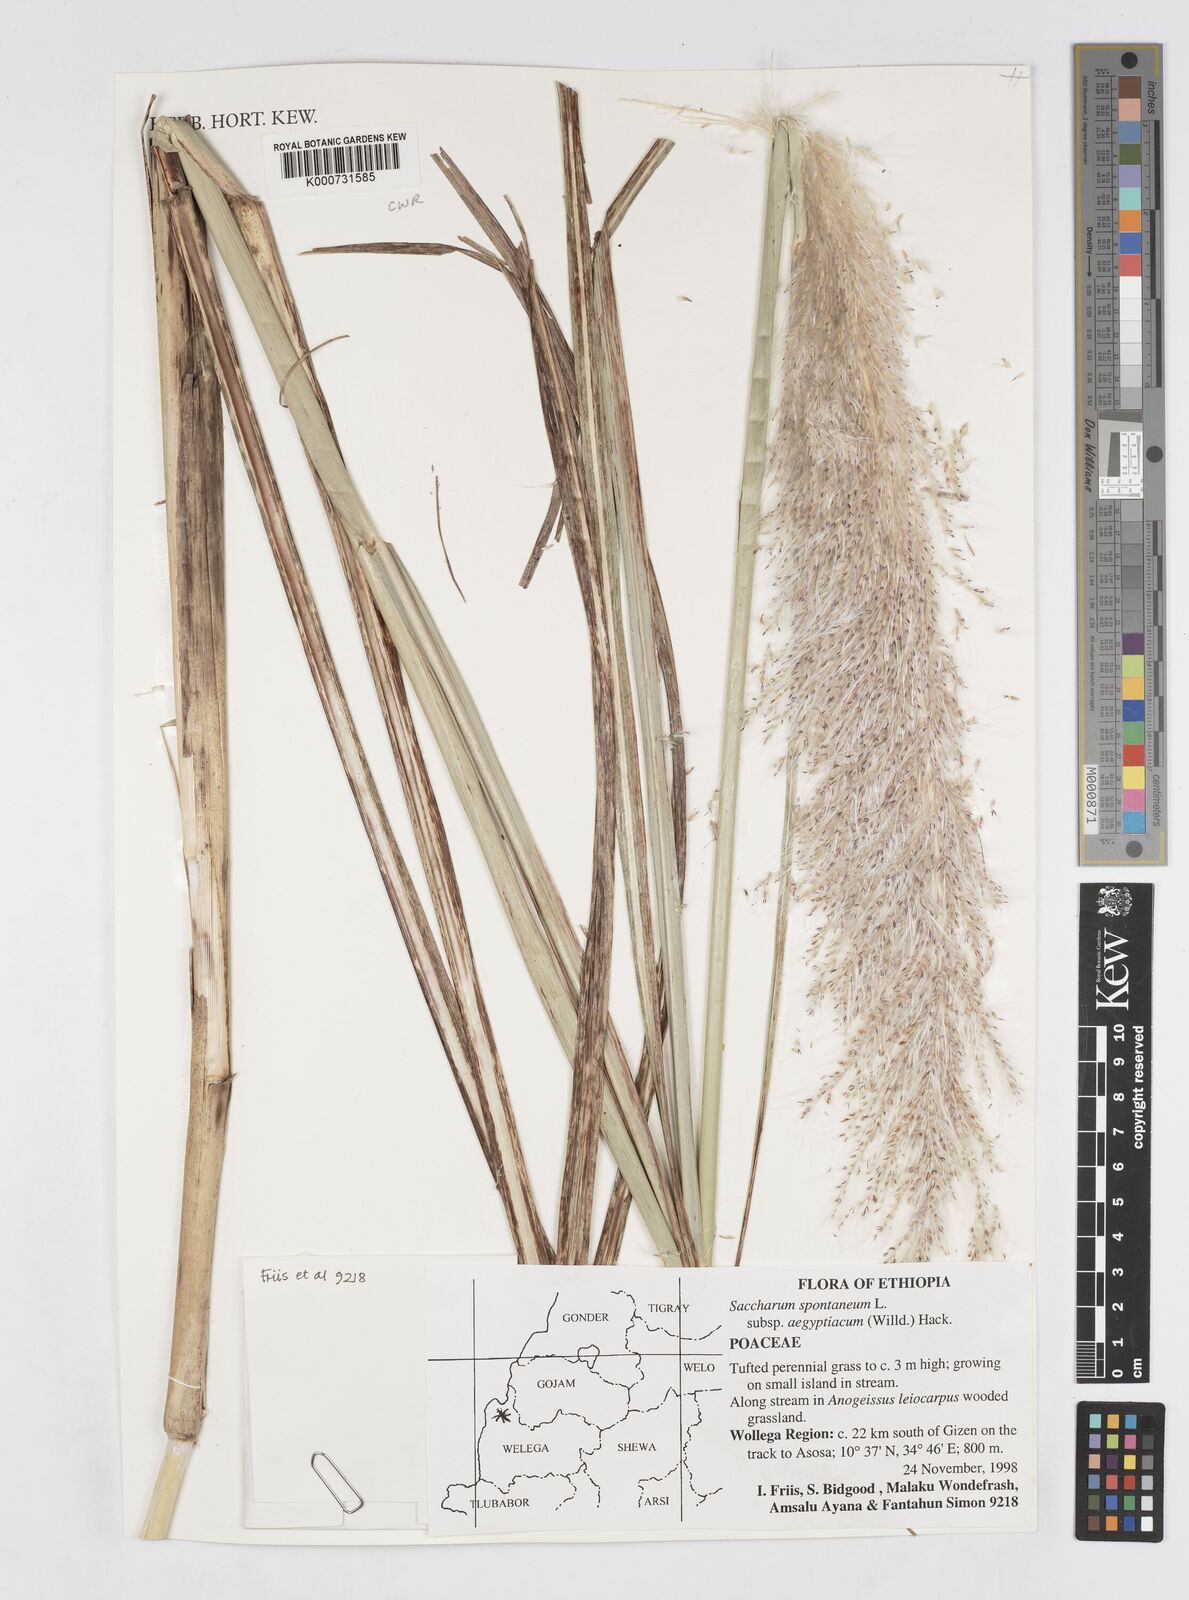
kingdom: Plantae
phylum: Tracheophyta
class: Liliopsida
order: Poales
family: Poaceae
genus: Saccharum
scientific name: Saccharum spontaneum
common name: Wild sugarcane
